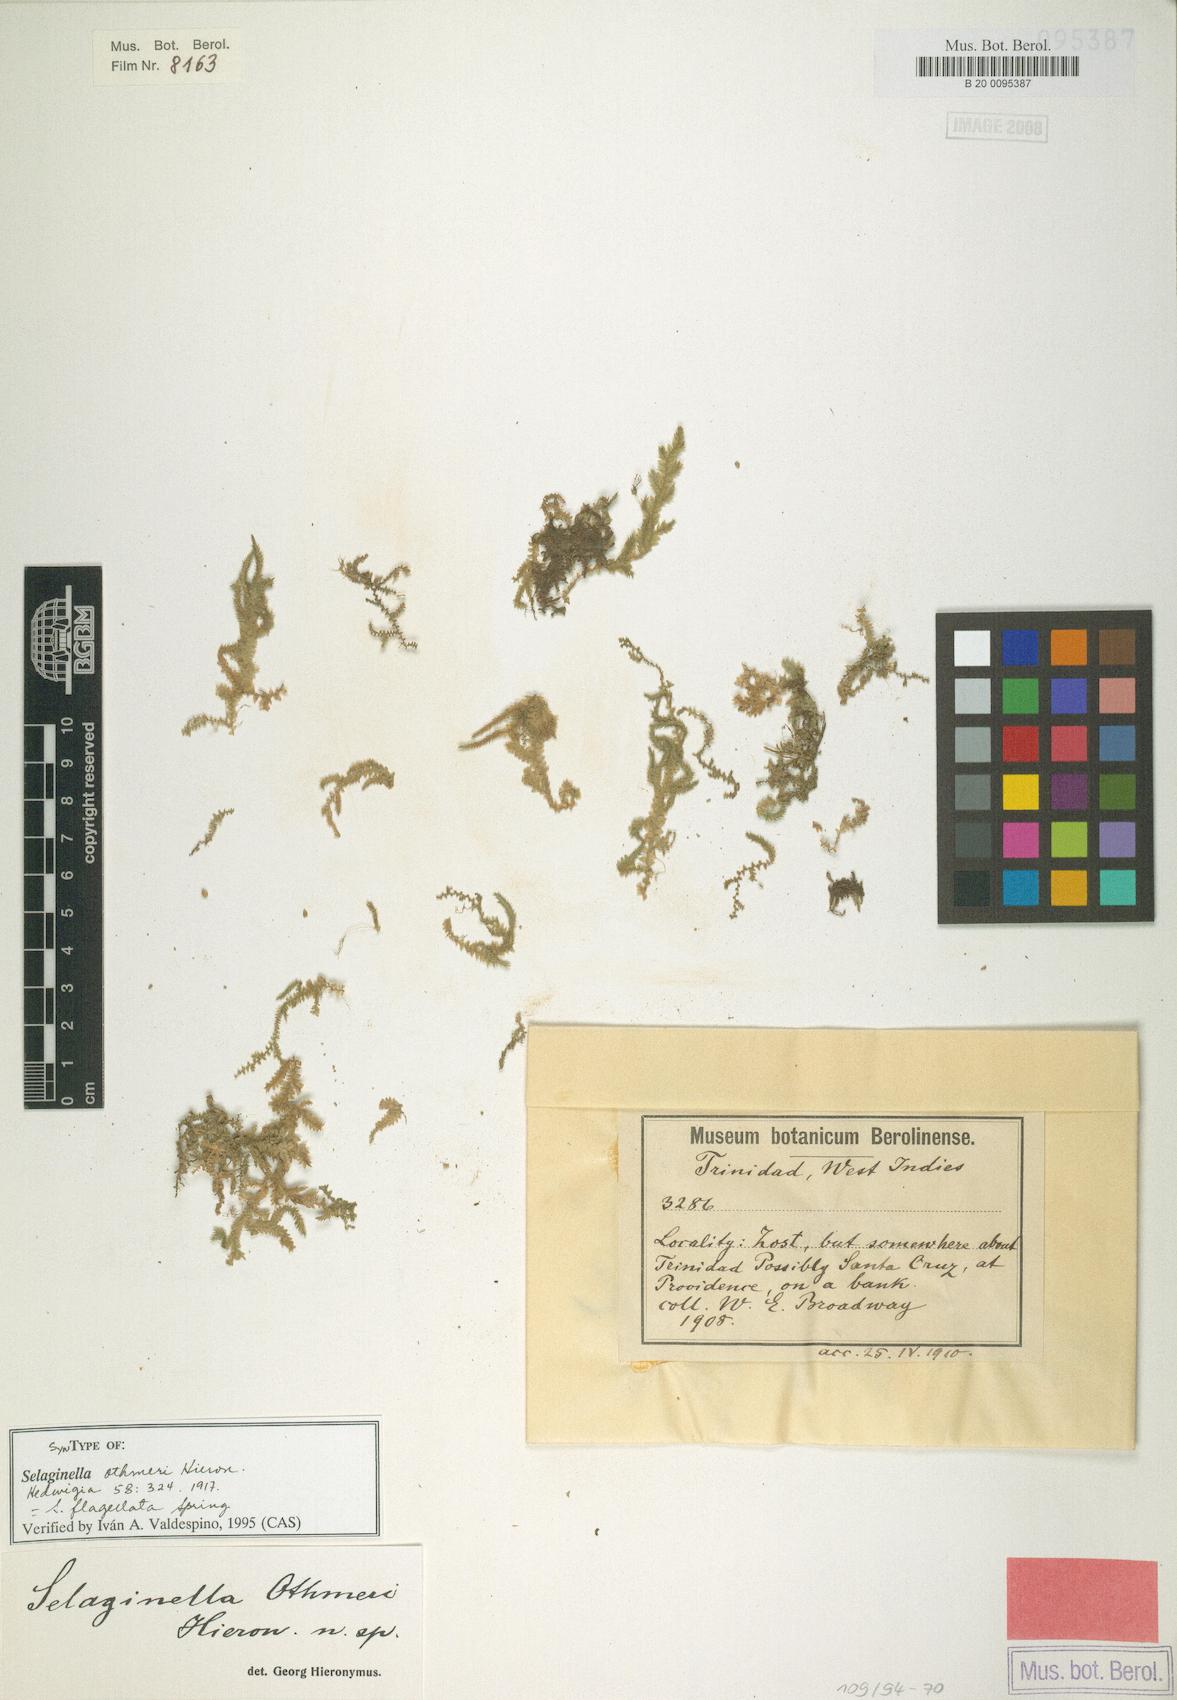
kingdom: Plantae
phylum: Tracheophyta
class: Lycopodiopsida
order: Selaginellales
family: Selaginellaceae
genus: Selaginella
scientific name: Selaginella flagellata
